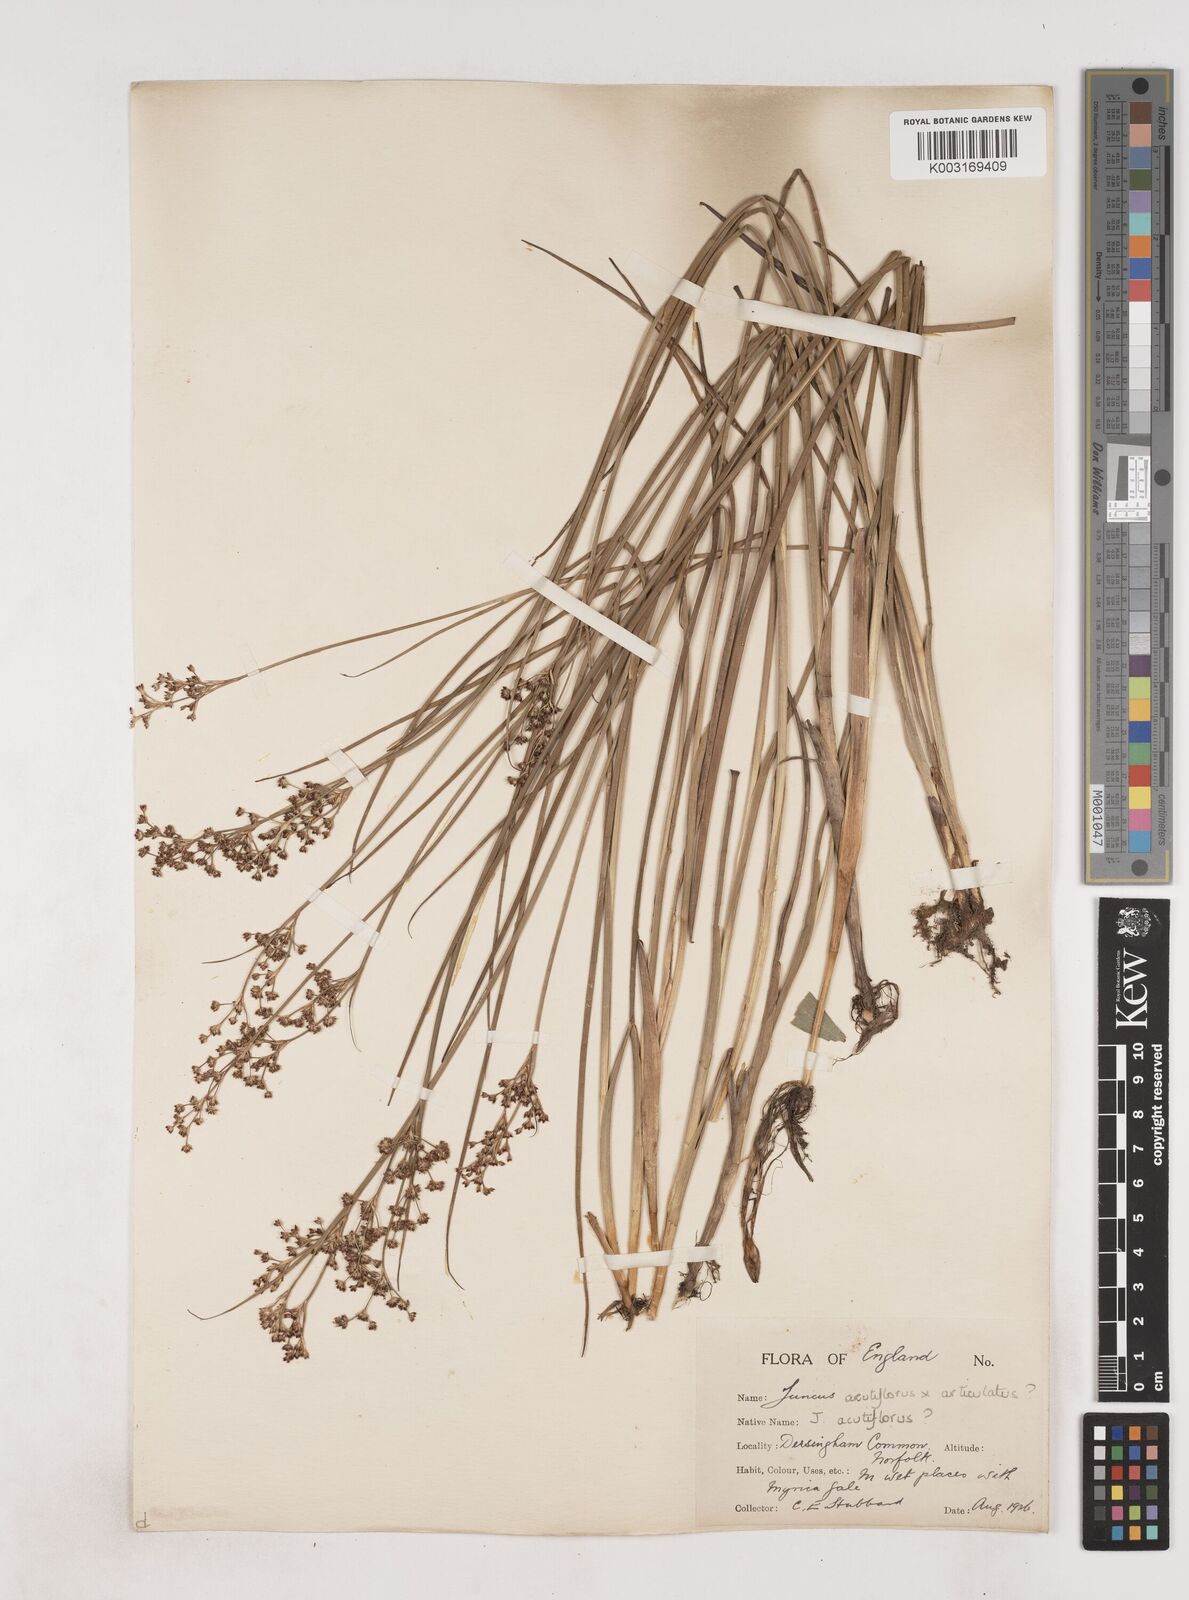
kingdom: Plantae
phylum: Tracheophyta
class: Liliopsida
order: Poales
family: Juncaceae
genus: Juncus
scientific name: Juncus
